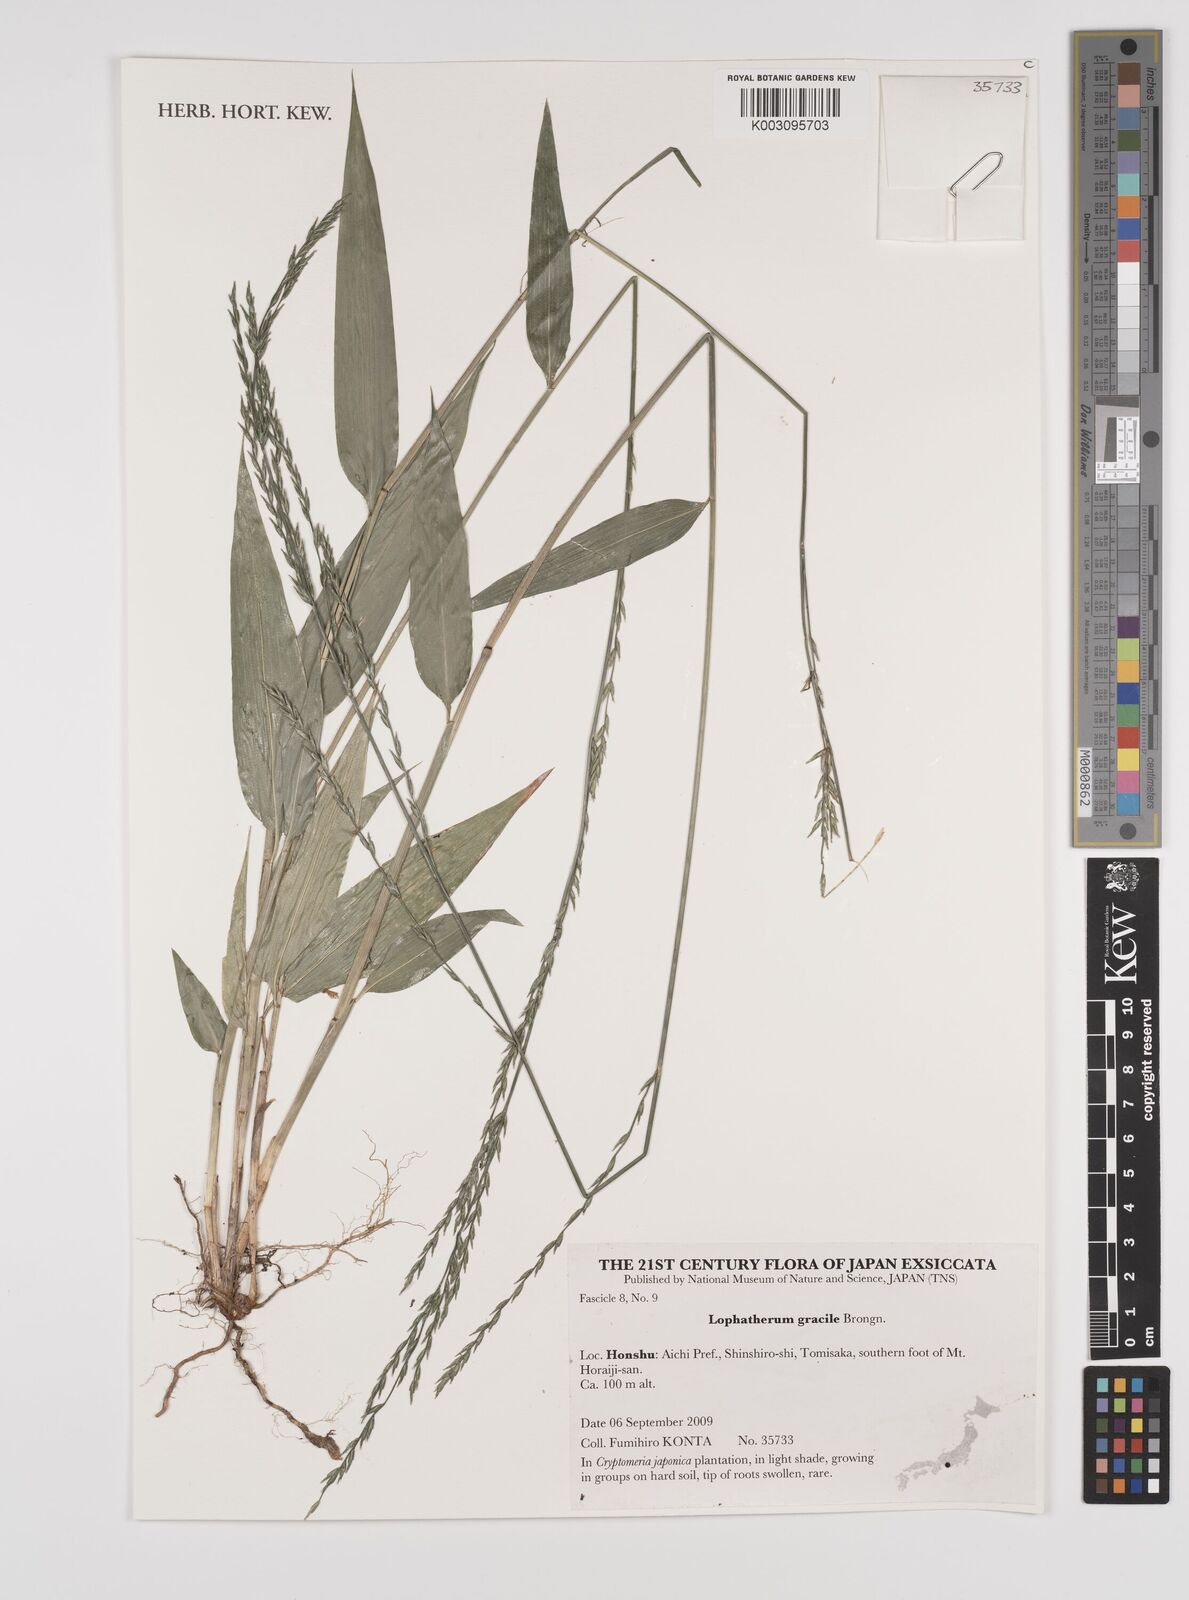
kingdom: Plantae
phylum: Tracheophyta
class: Liliopsida
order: Poales
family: Poaceae
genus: Lophatherum
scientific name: Lophatherum gracile
